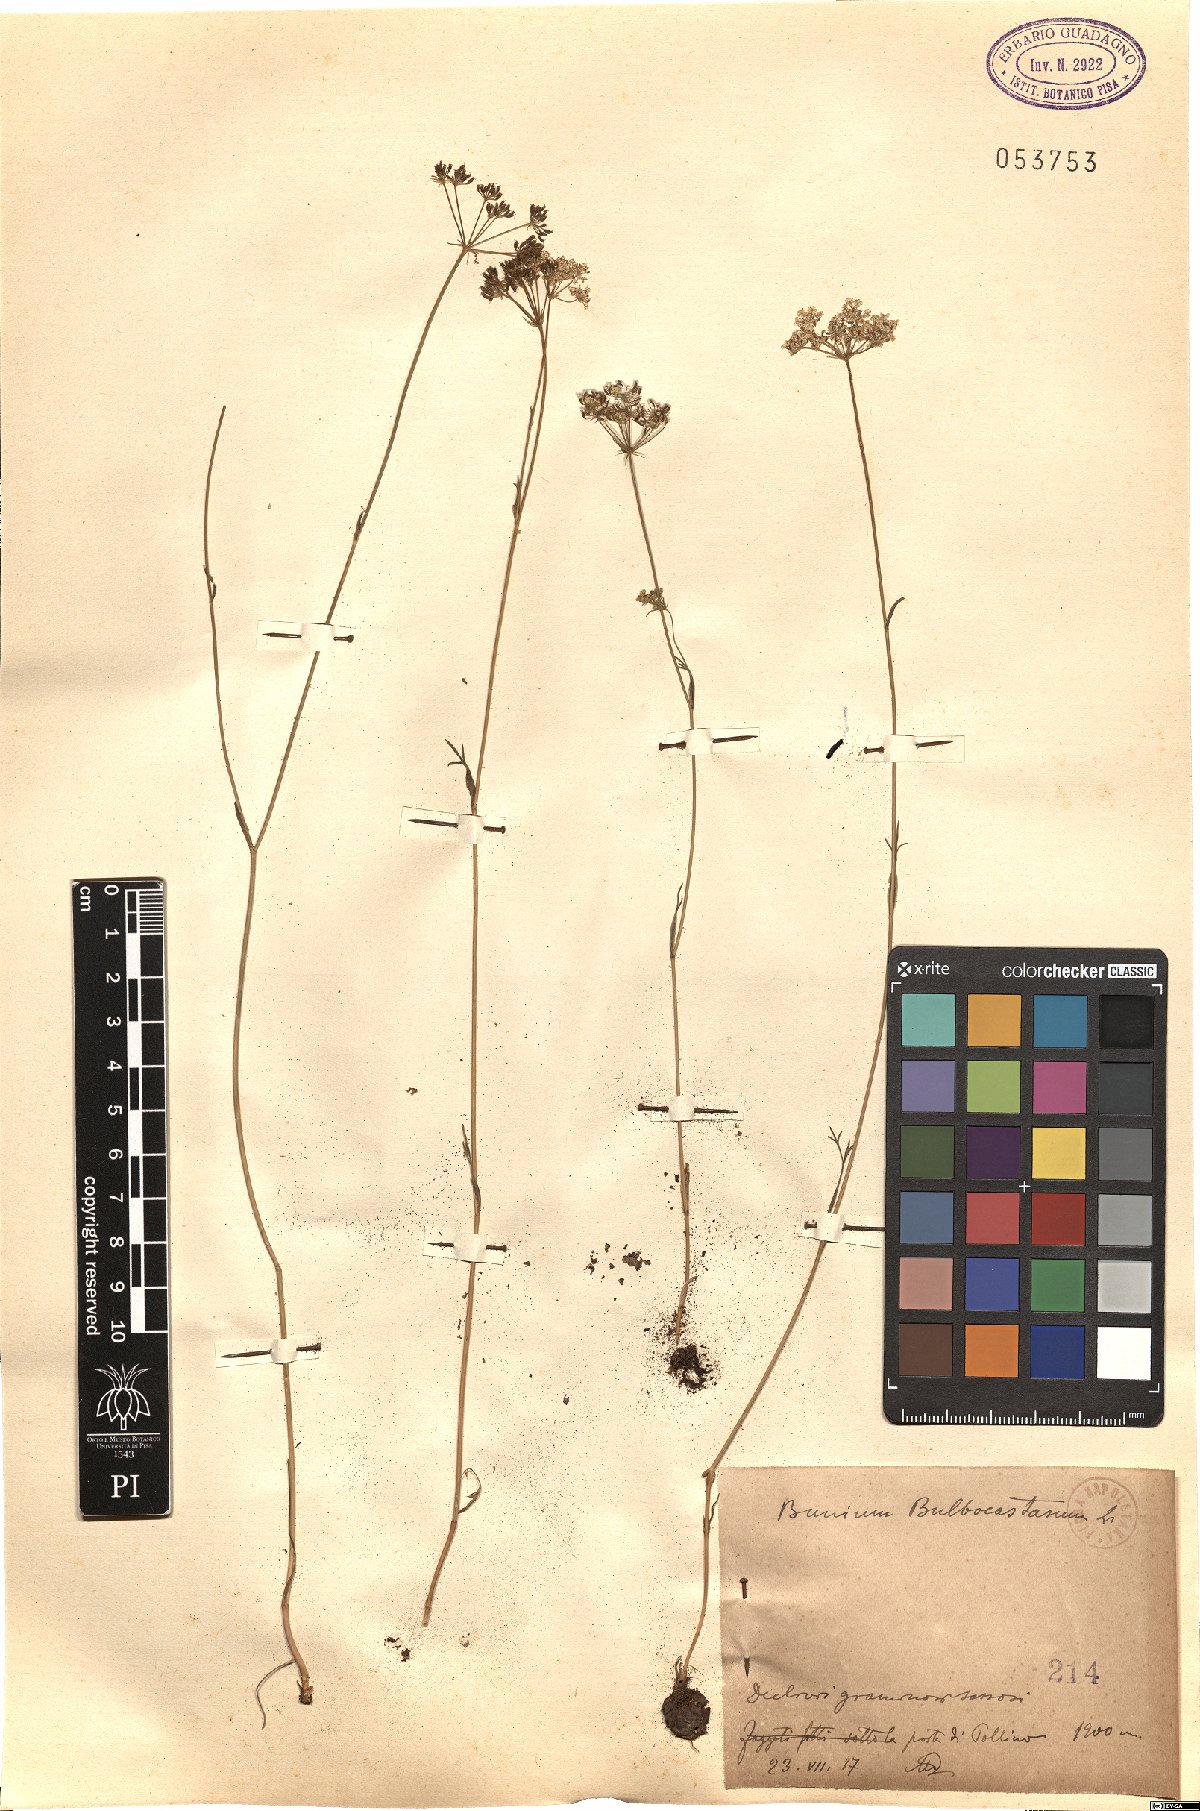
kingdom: Plantae
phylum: Tracheophyta
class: Magnoliopsida
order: Apiales
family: Apiaceae
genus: Bunium
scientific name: Bunium bulbocastanum
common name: Great pignut
